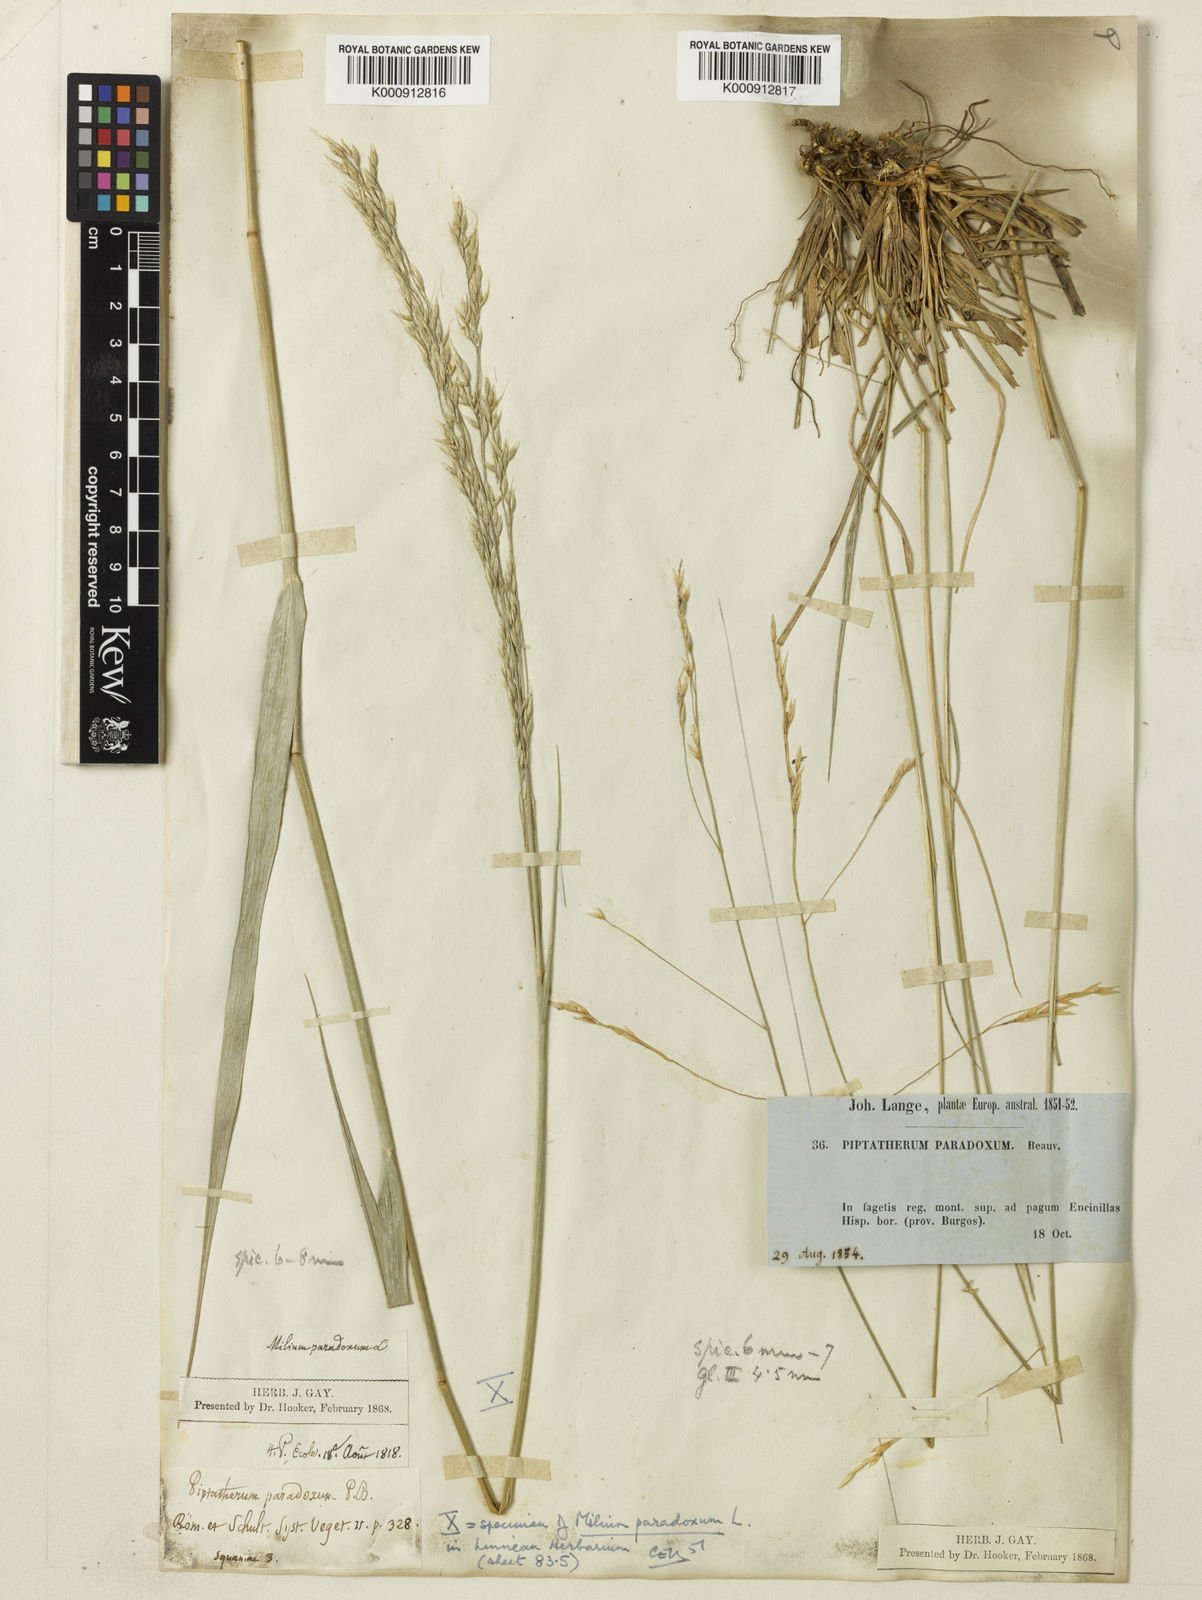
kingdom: Plantae
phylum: Tracheophyta
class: Liliopsida
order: Poales
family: Poaceae
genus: Achnatherum
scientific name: Achnatherum paradoxum
